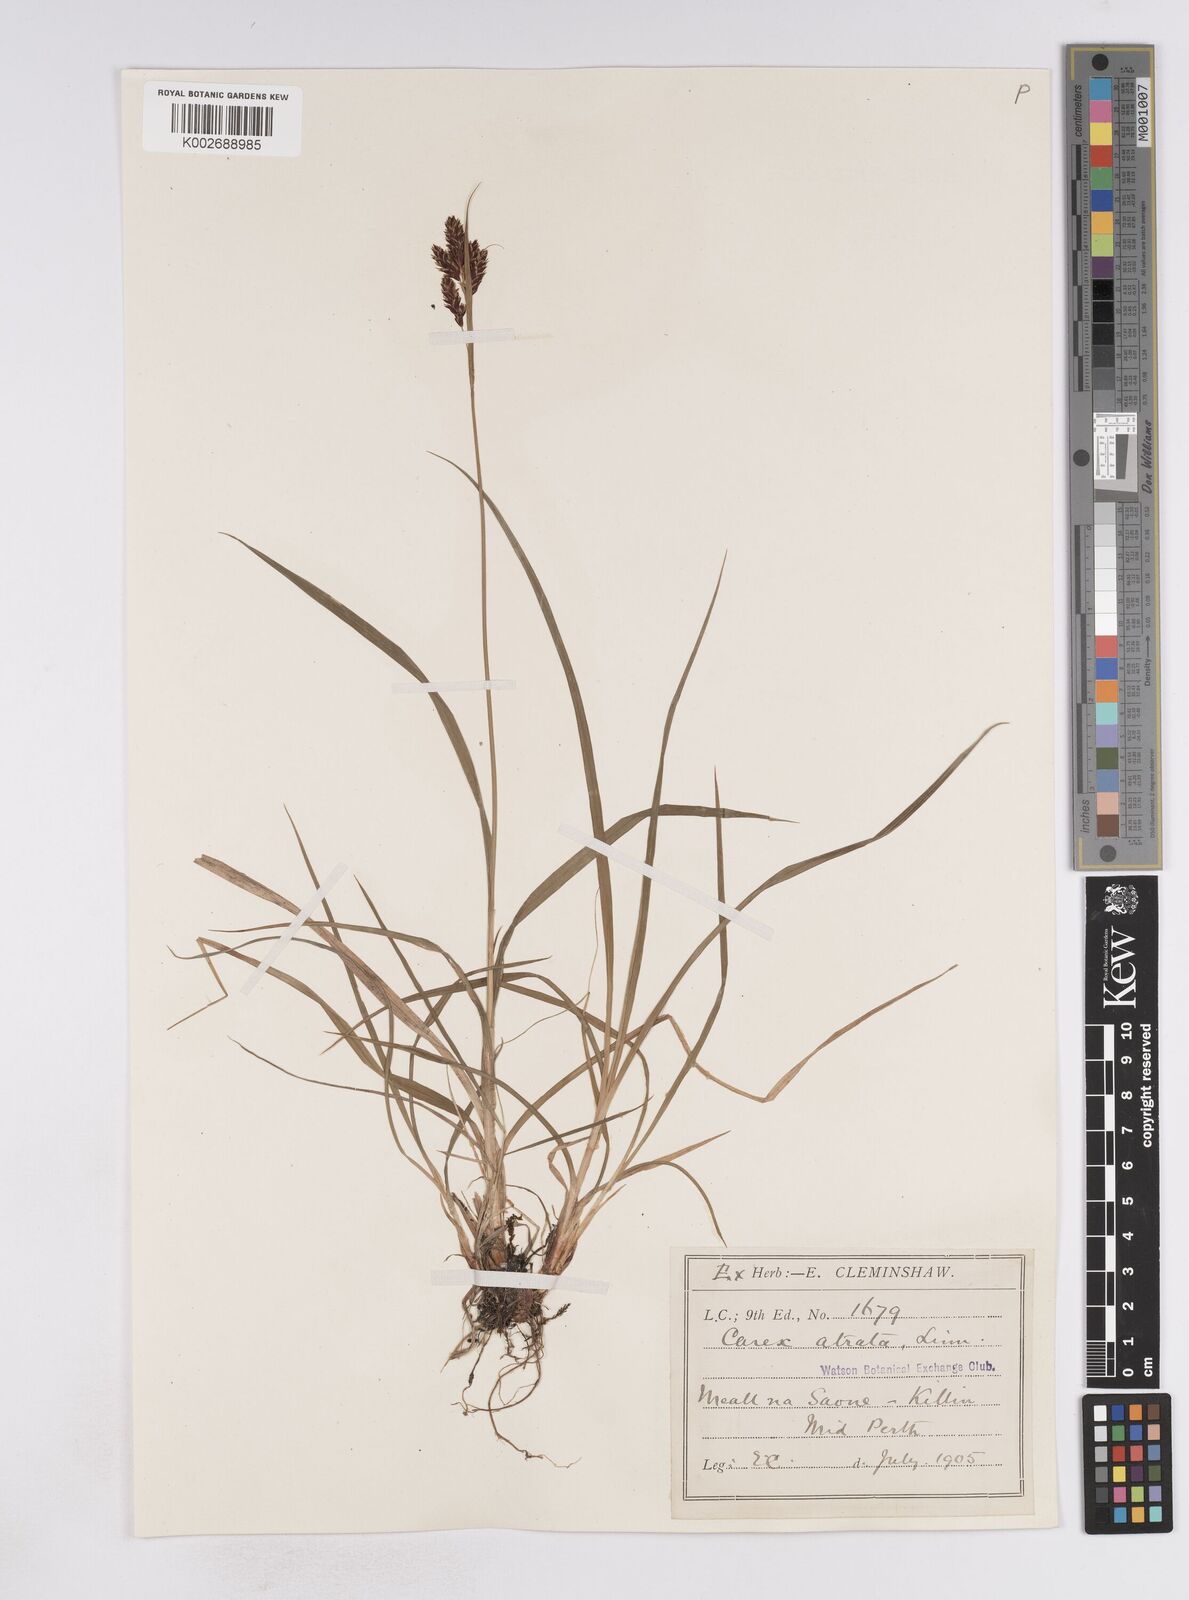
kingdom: Plantae
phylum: Tracheophyta
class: Liliopsida
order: Poales
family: Cyperaceae
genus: Carex
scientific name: Carex atrata
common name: Black alpine sedge
